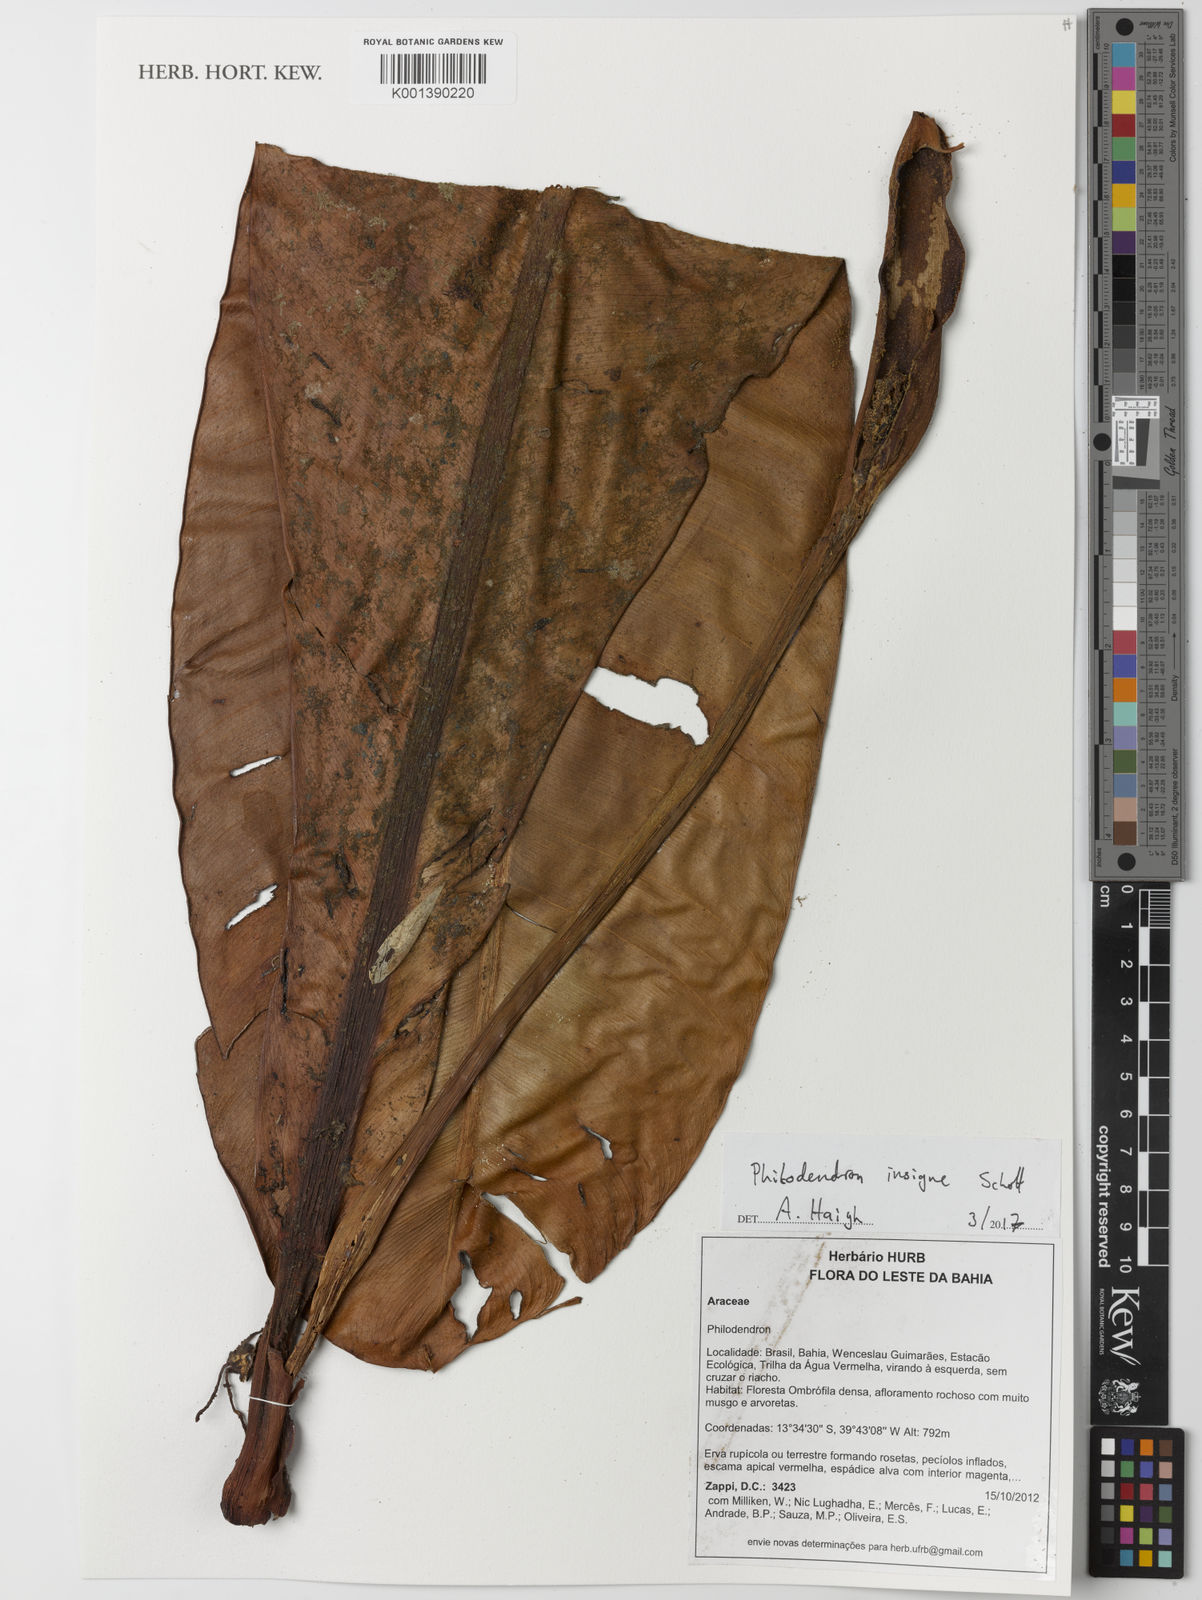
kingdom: Plantae
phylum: Tracheophyta
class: Liliopsida
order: Alismatales
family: Araceae
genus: Philodendron
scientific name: Philodendron insigne
